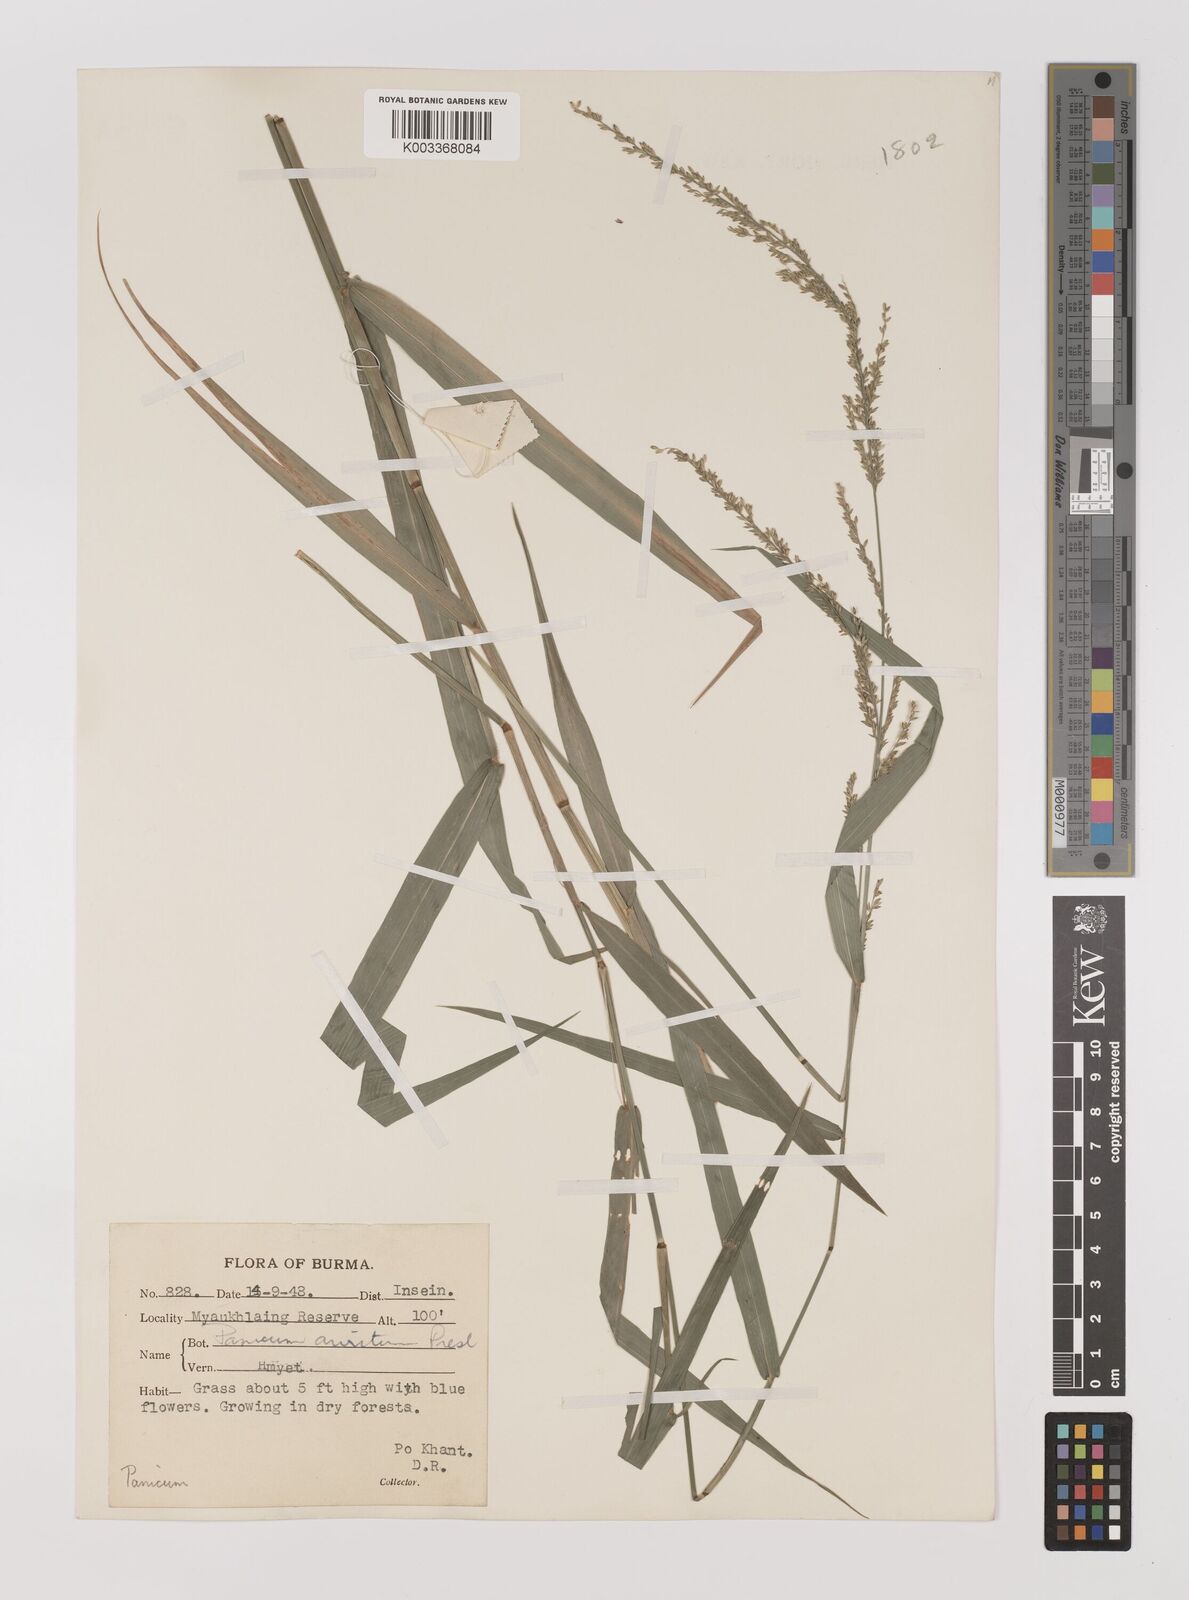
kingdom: Plantae
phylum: Tracheophyta
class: Liliopsida
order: Poales
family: Poaceae
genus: Hymenachne
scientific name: Hymenachne aurita
